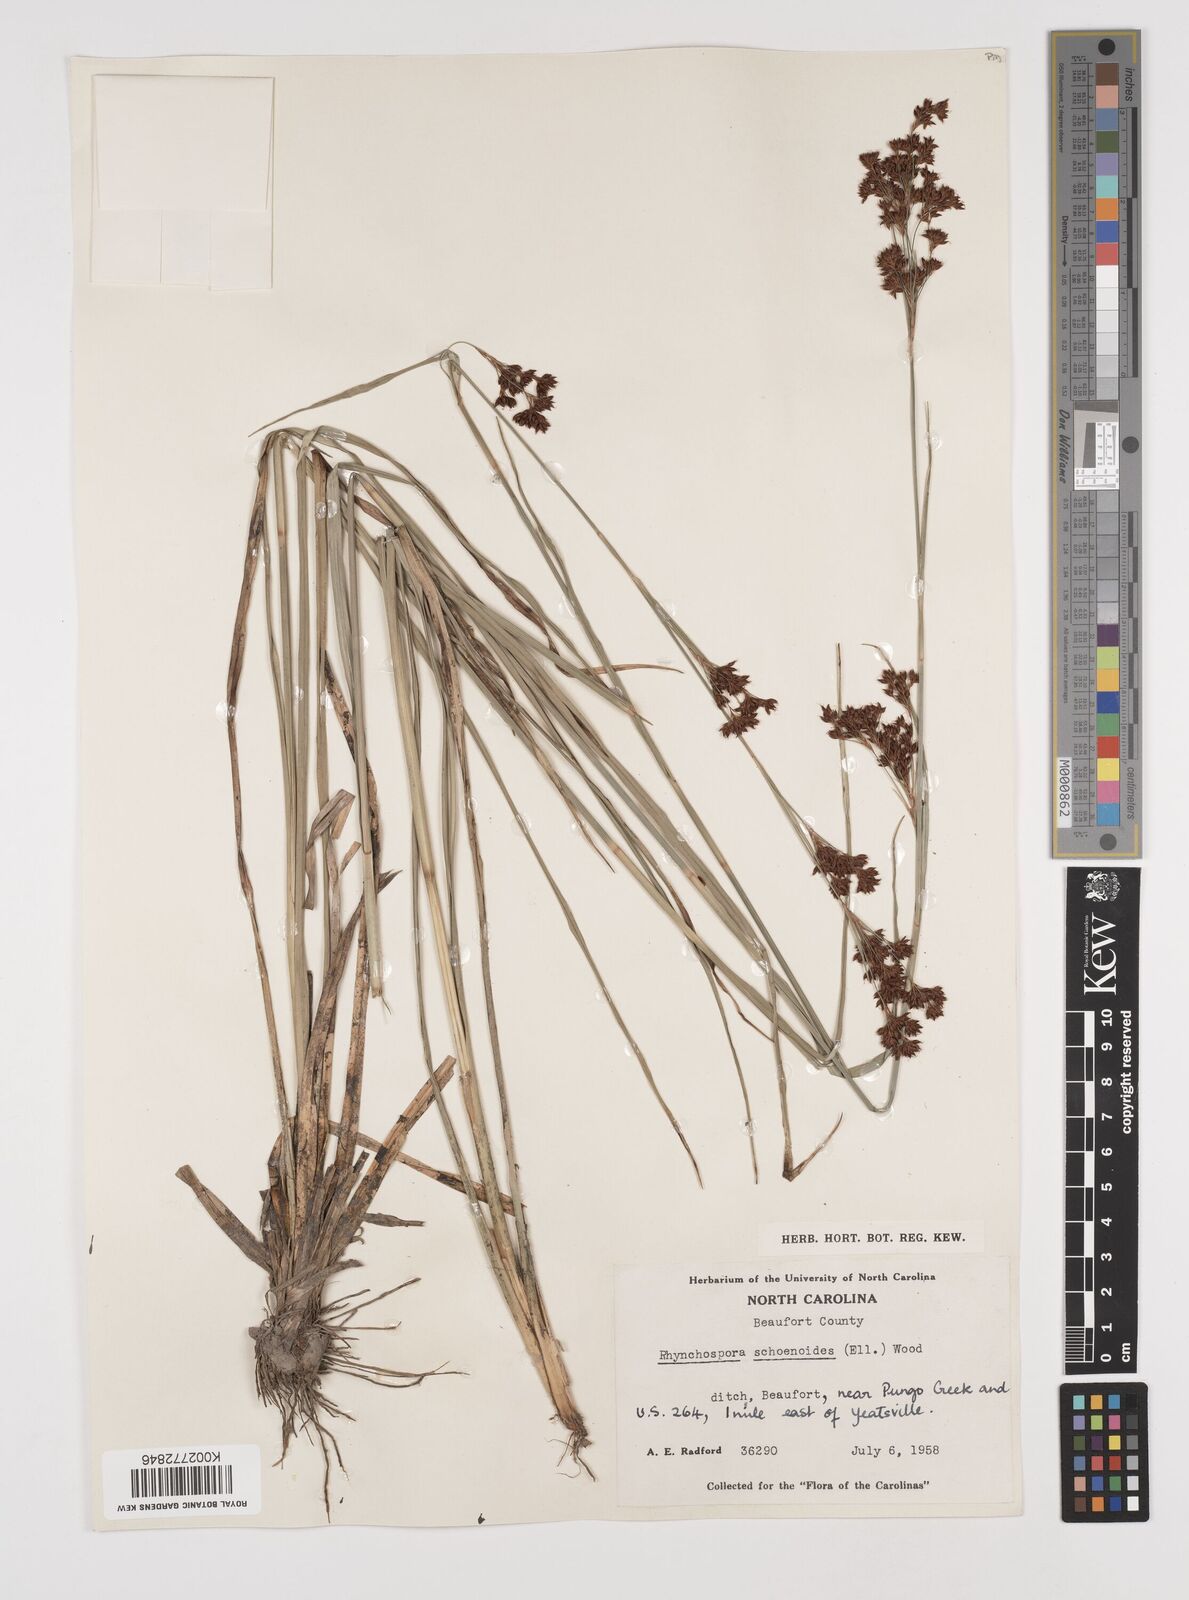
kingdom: Plantae
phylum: Tracheophyta
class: Liliopsida
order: Poales
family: Cyperaceae
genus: Rhynchospora
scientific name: Rhynchospora holoschoenoides
